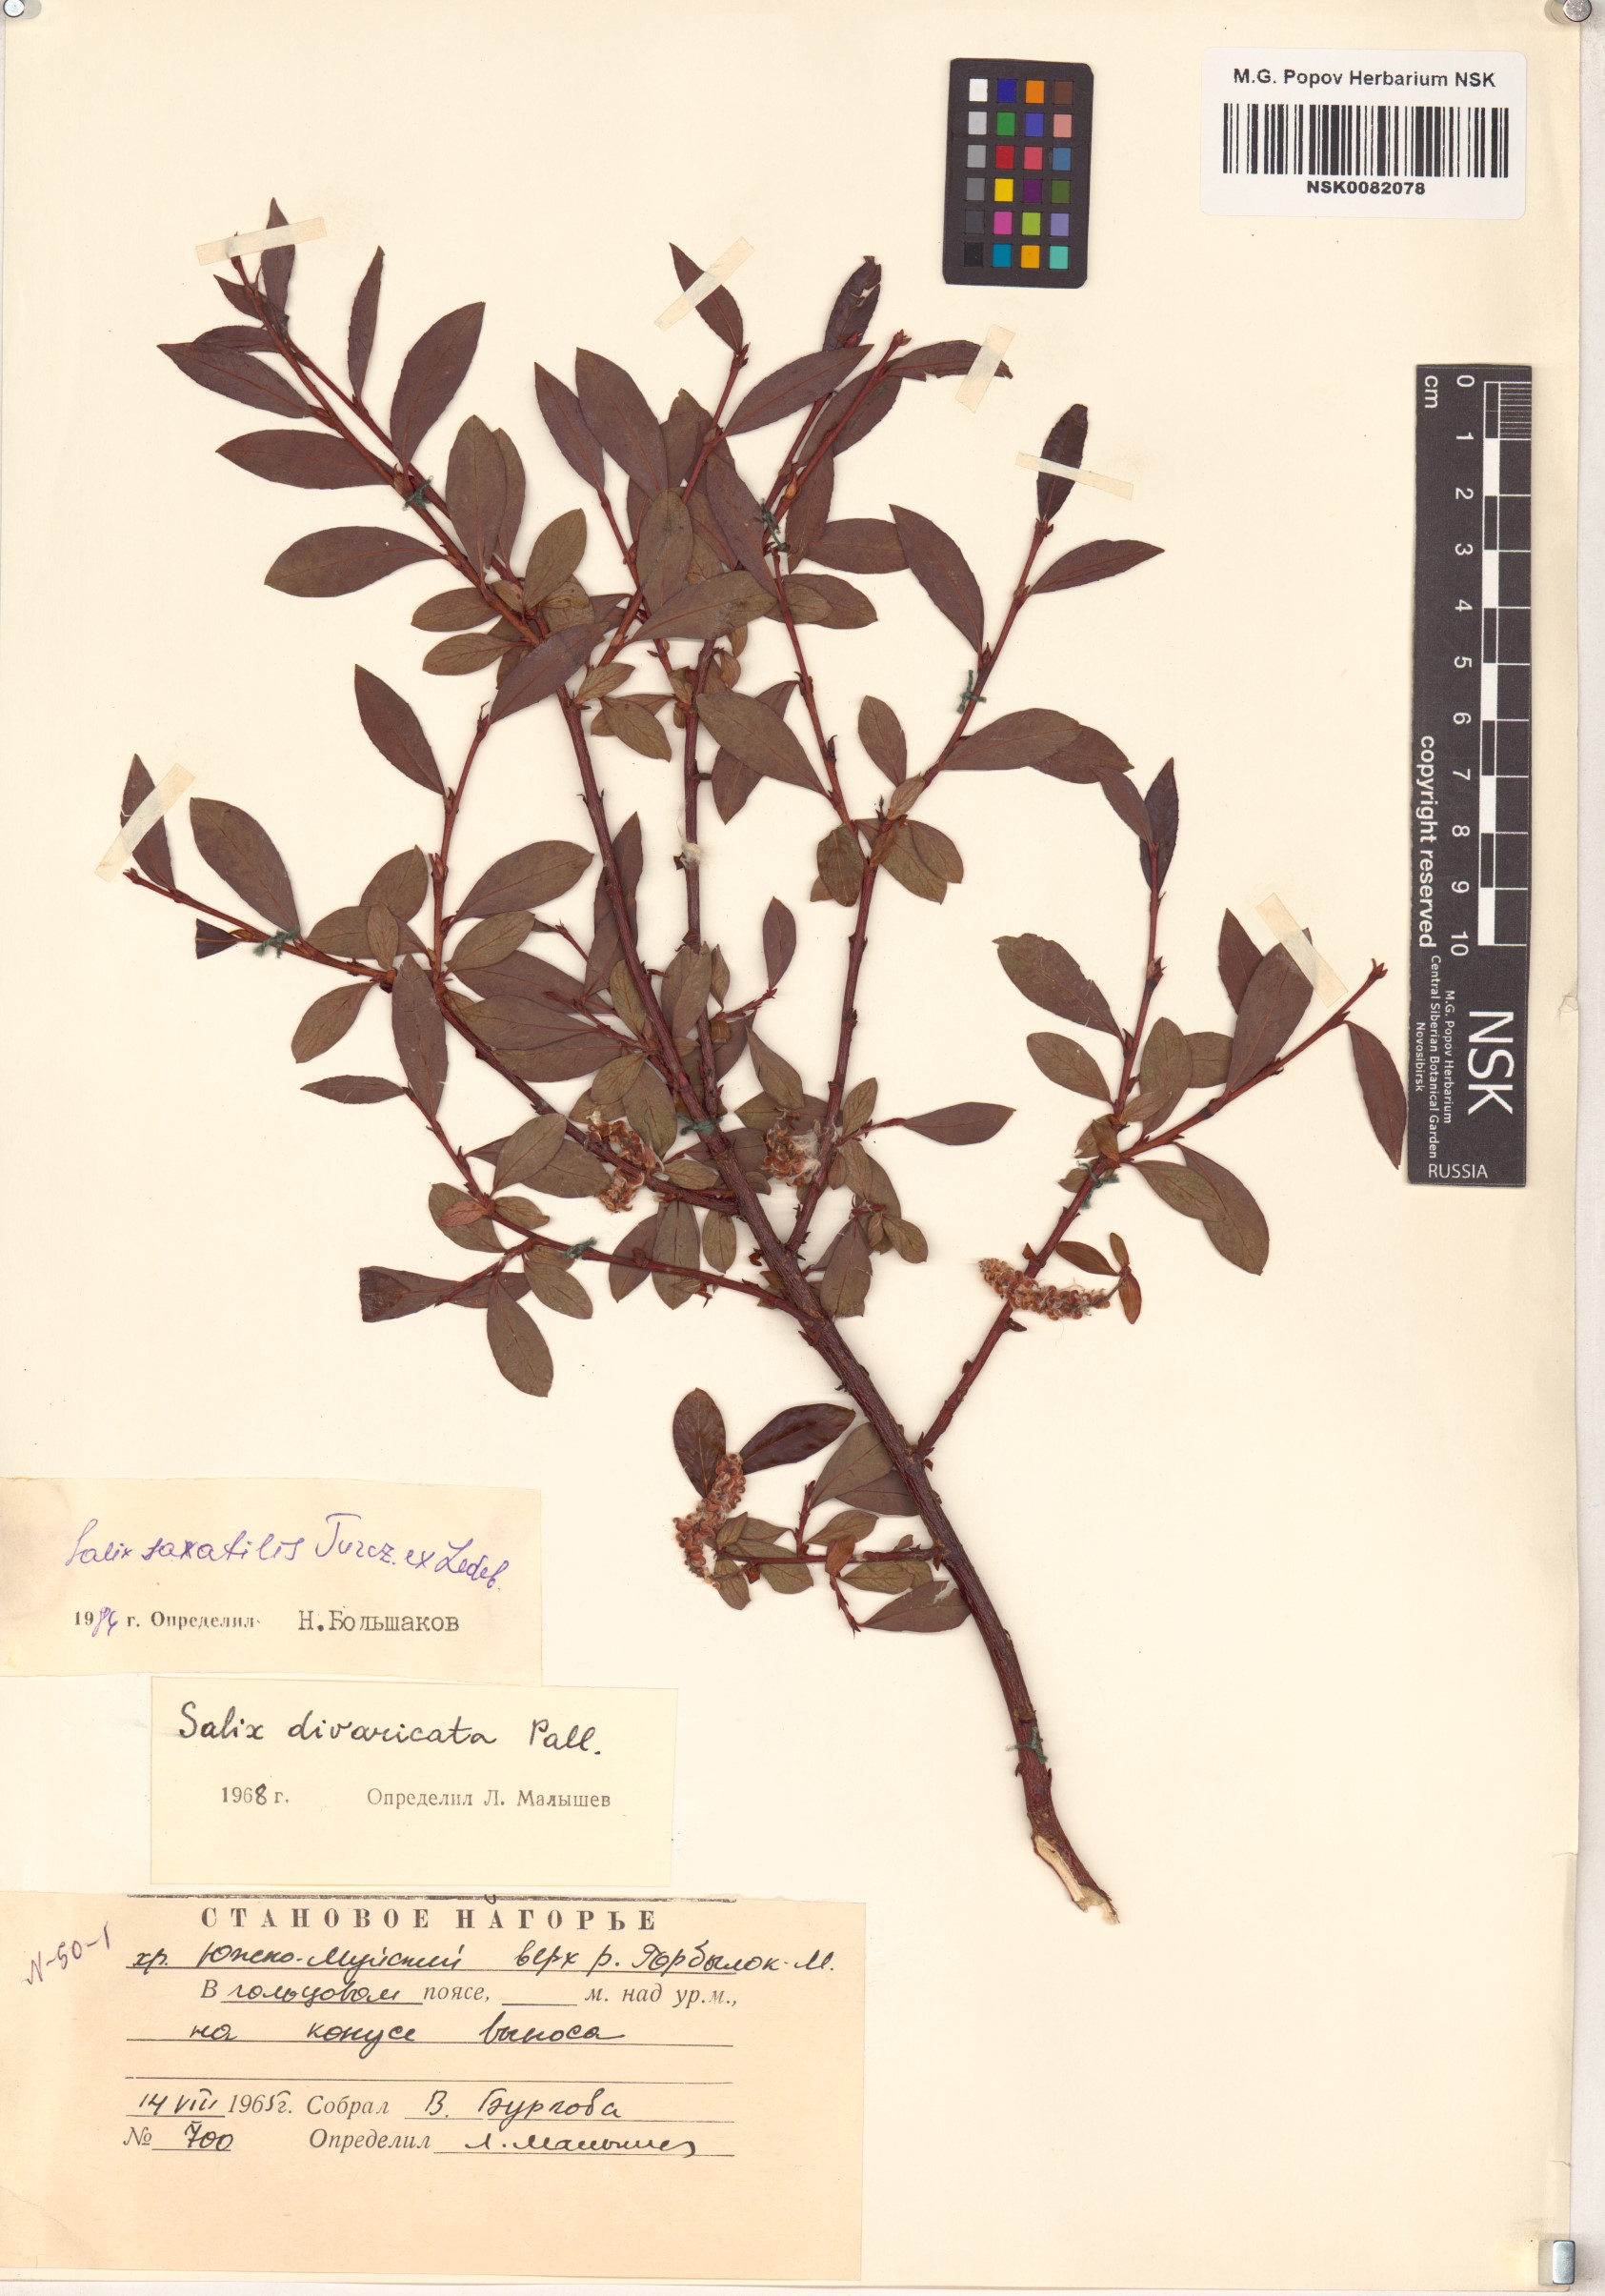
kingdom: Plantae
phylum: Tracheophyta
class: Magnoliopsida
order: Malpighiales
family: Salicaceae
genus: Salix
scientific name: Salix saxatilis
